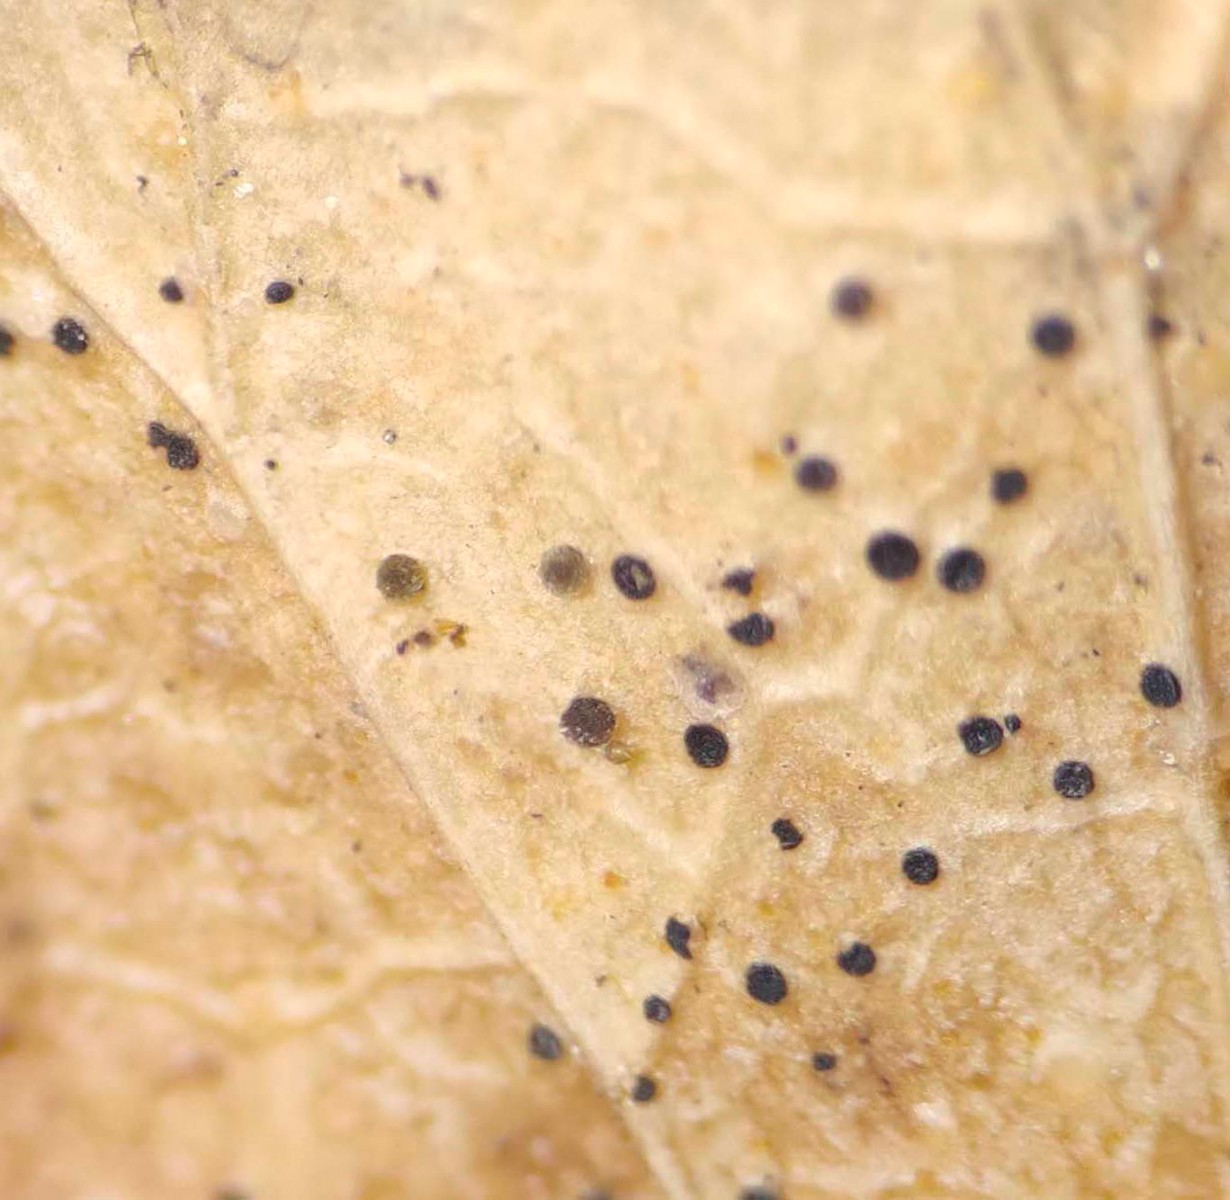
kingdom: Fungi
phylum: Ascomycota
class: Leotiomycetes
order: Helotiales
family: Cenangiaceae
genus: Trochila
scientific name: Trochila craterium
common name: vedbend-lågskive
